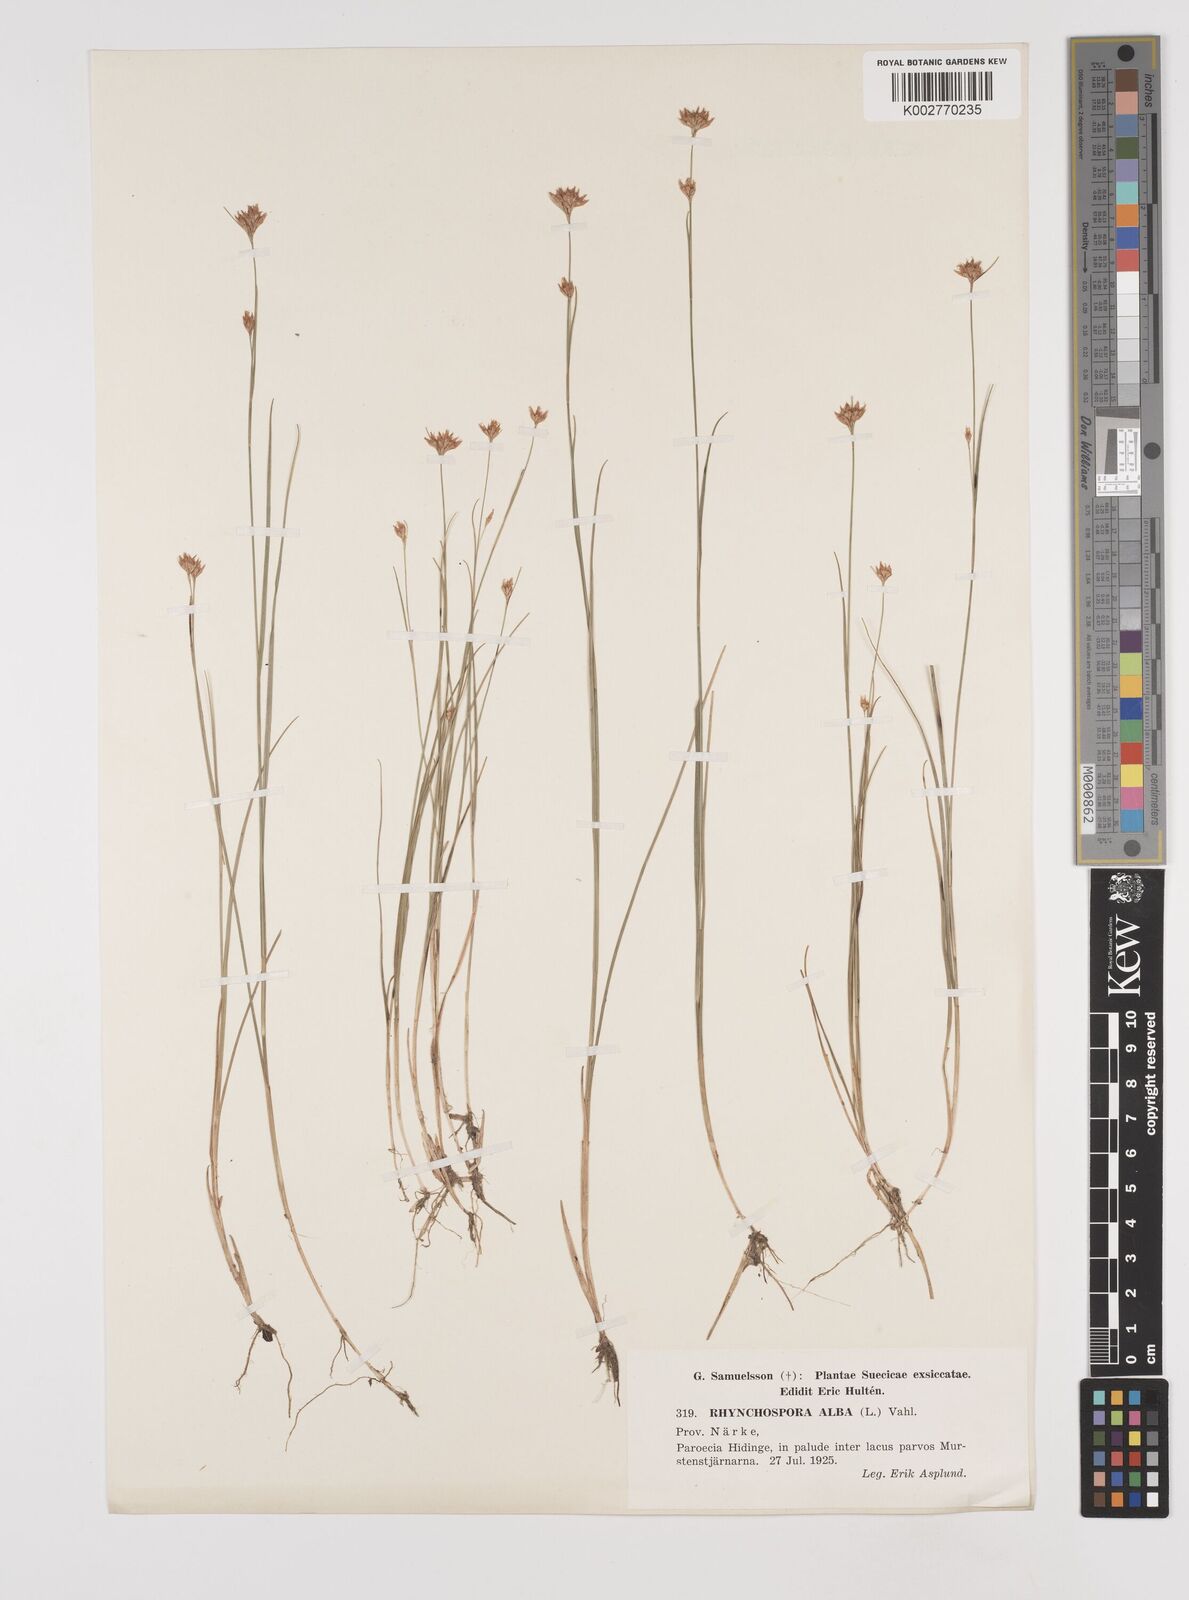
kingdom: Plantae
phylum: Tracheophyta
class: Liliopsida
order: Poales
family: Cyperaceae
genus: Rhynchospora
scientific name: Rhynchospora alba
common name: White beak-sedge
